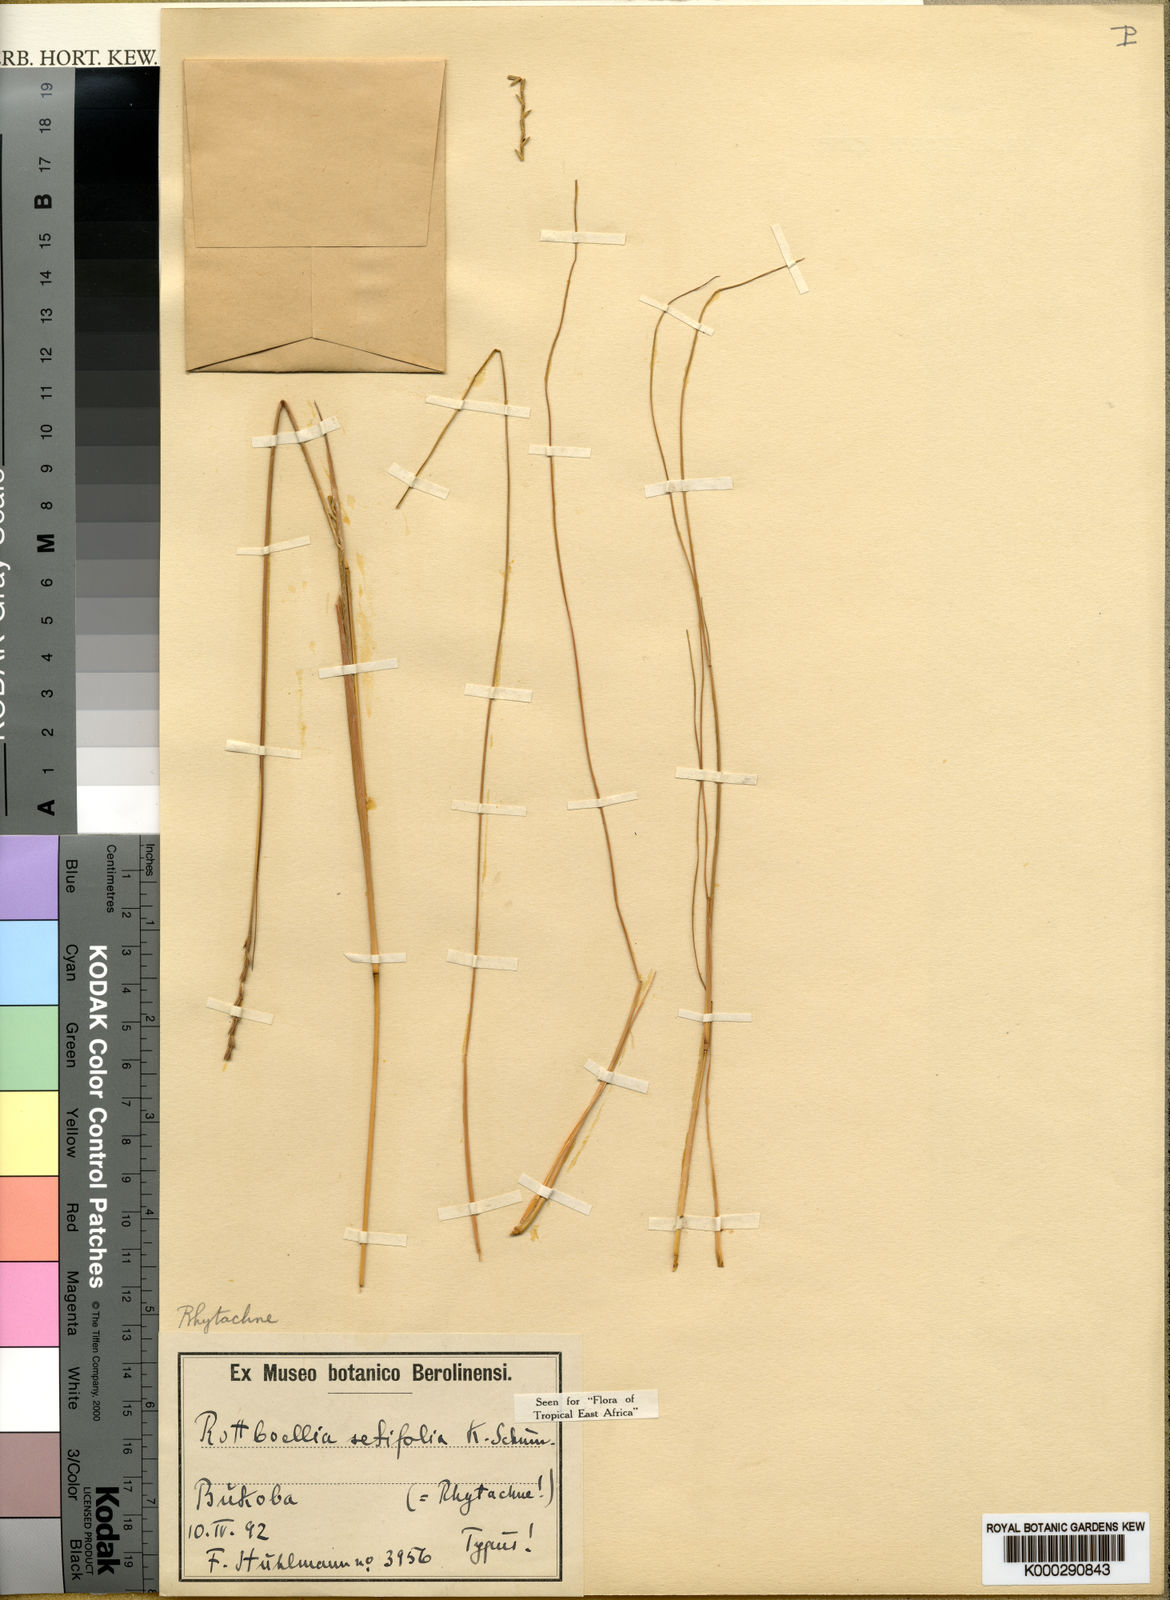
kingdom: Plantae
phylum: Tracheophyta
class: Liliopsida
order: Poales
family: Poaceae
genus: Rhytachne
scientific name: Rhytachne rottboellioides
